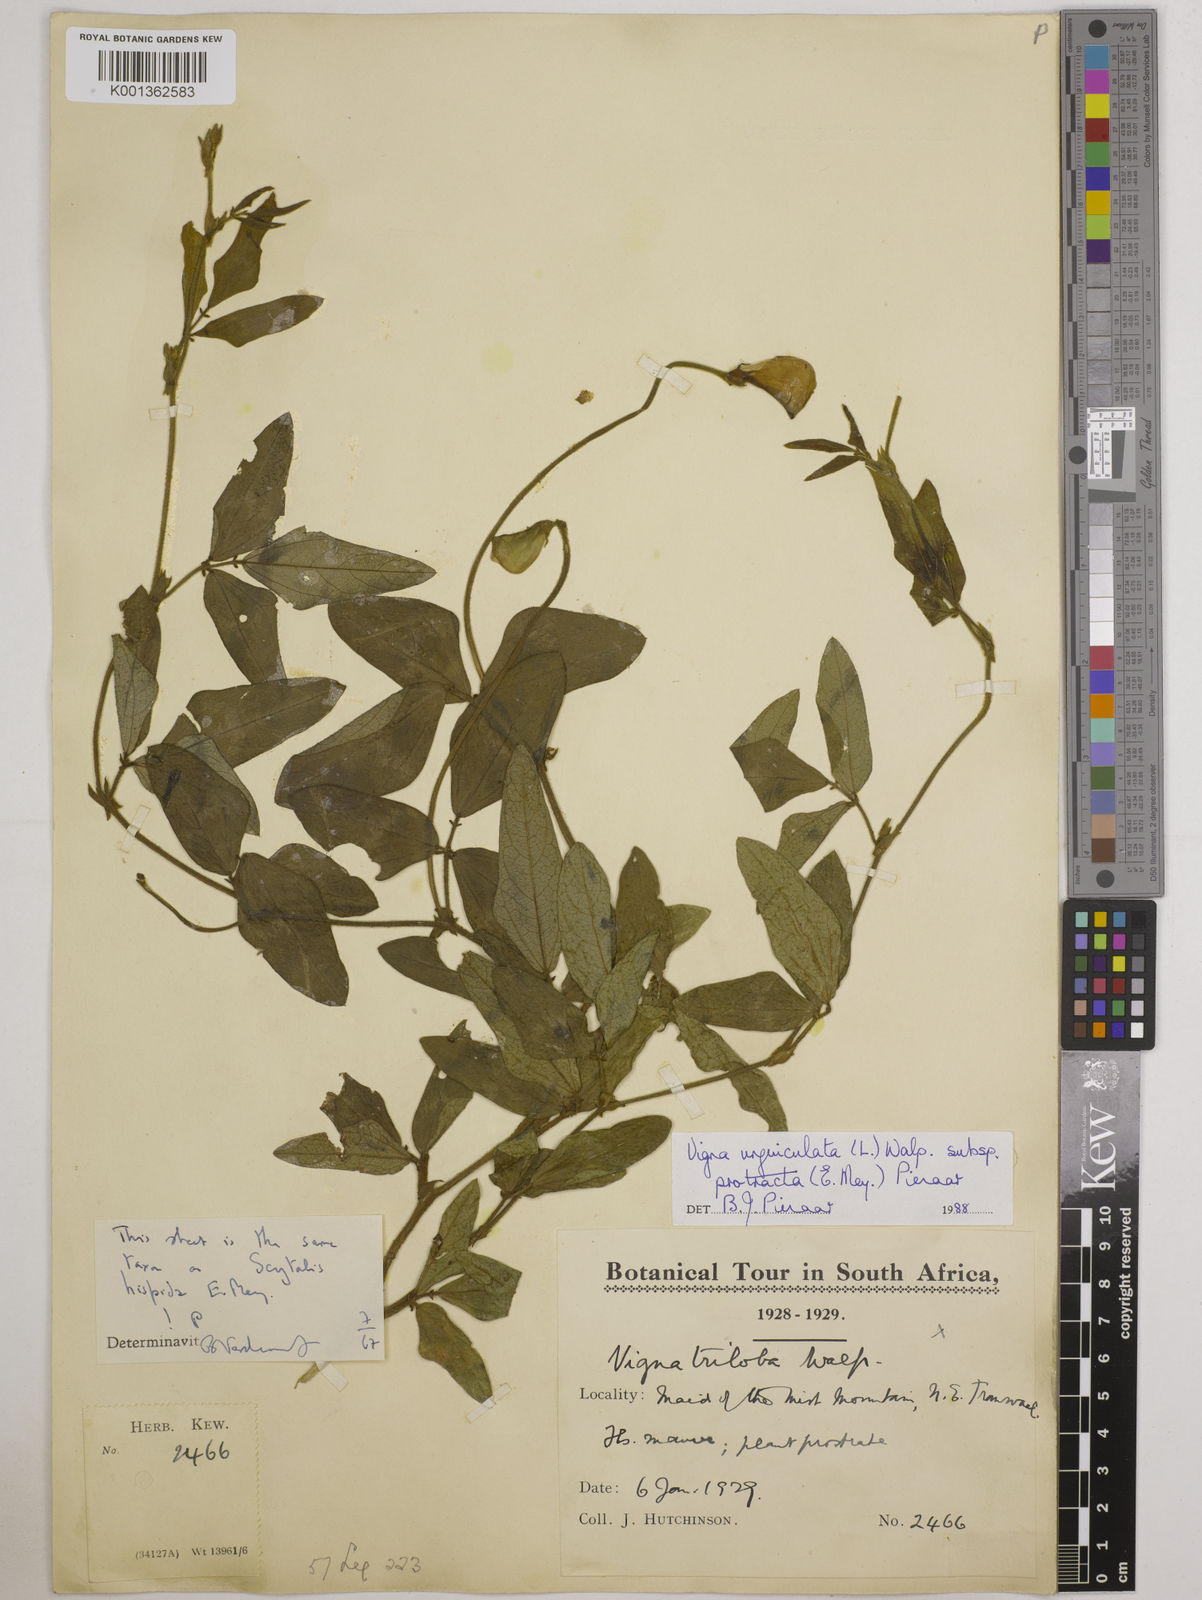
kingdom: Plantae
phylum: Tracheophyta
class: Magnoliopsida
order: Fabales
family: Fabaceae
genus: Vigna
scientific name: Vigna unguiculata
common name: Cowpea
